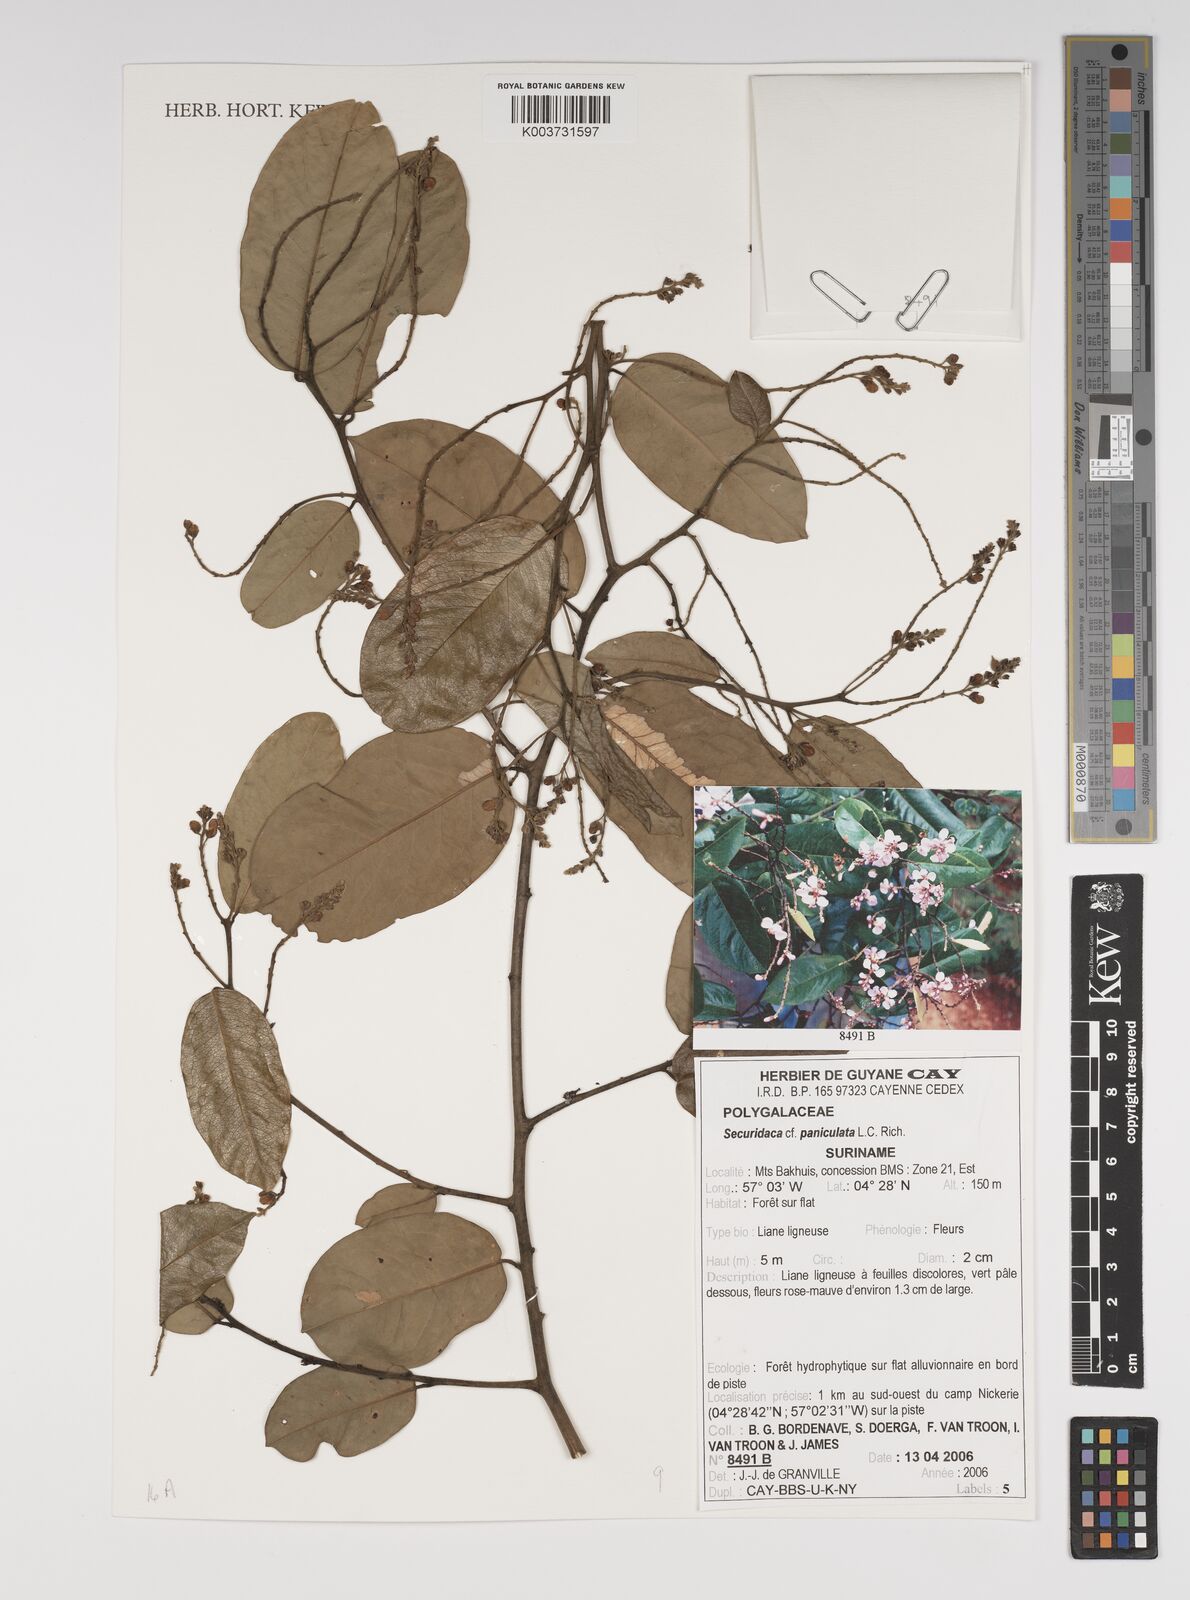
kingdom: Plantae
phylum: Tracheophyta
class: Magnoliopsida
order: Fabales
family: Polygalaceae
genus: Securidaca
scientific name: Securidaca paniculata
